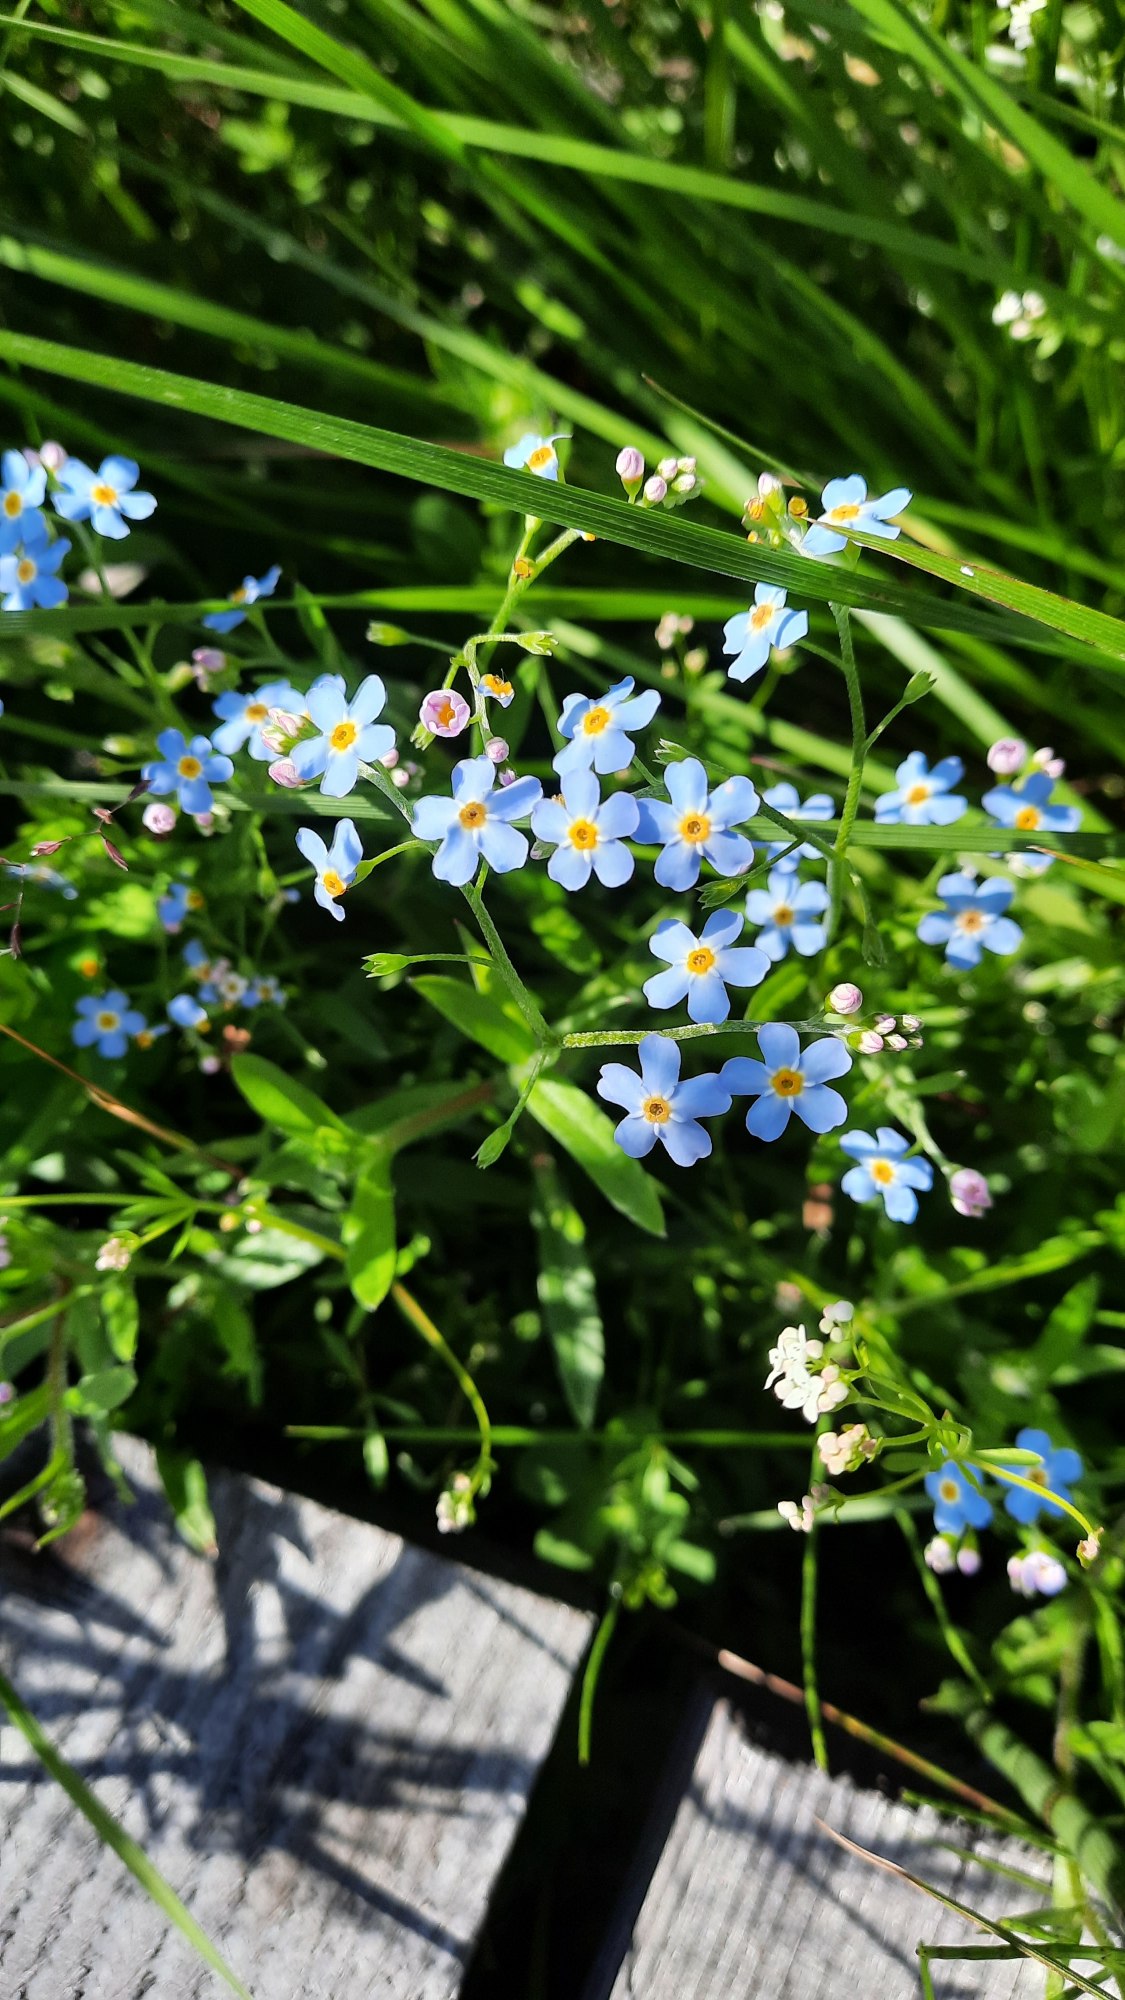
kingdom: Plantae
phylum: Tracheophyta
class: Magnoliopsida
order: Boraginales
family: Boraginaceae
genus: Myosotis
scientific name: Myosotis scorpioides
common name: Eng-forglemmigej
